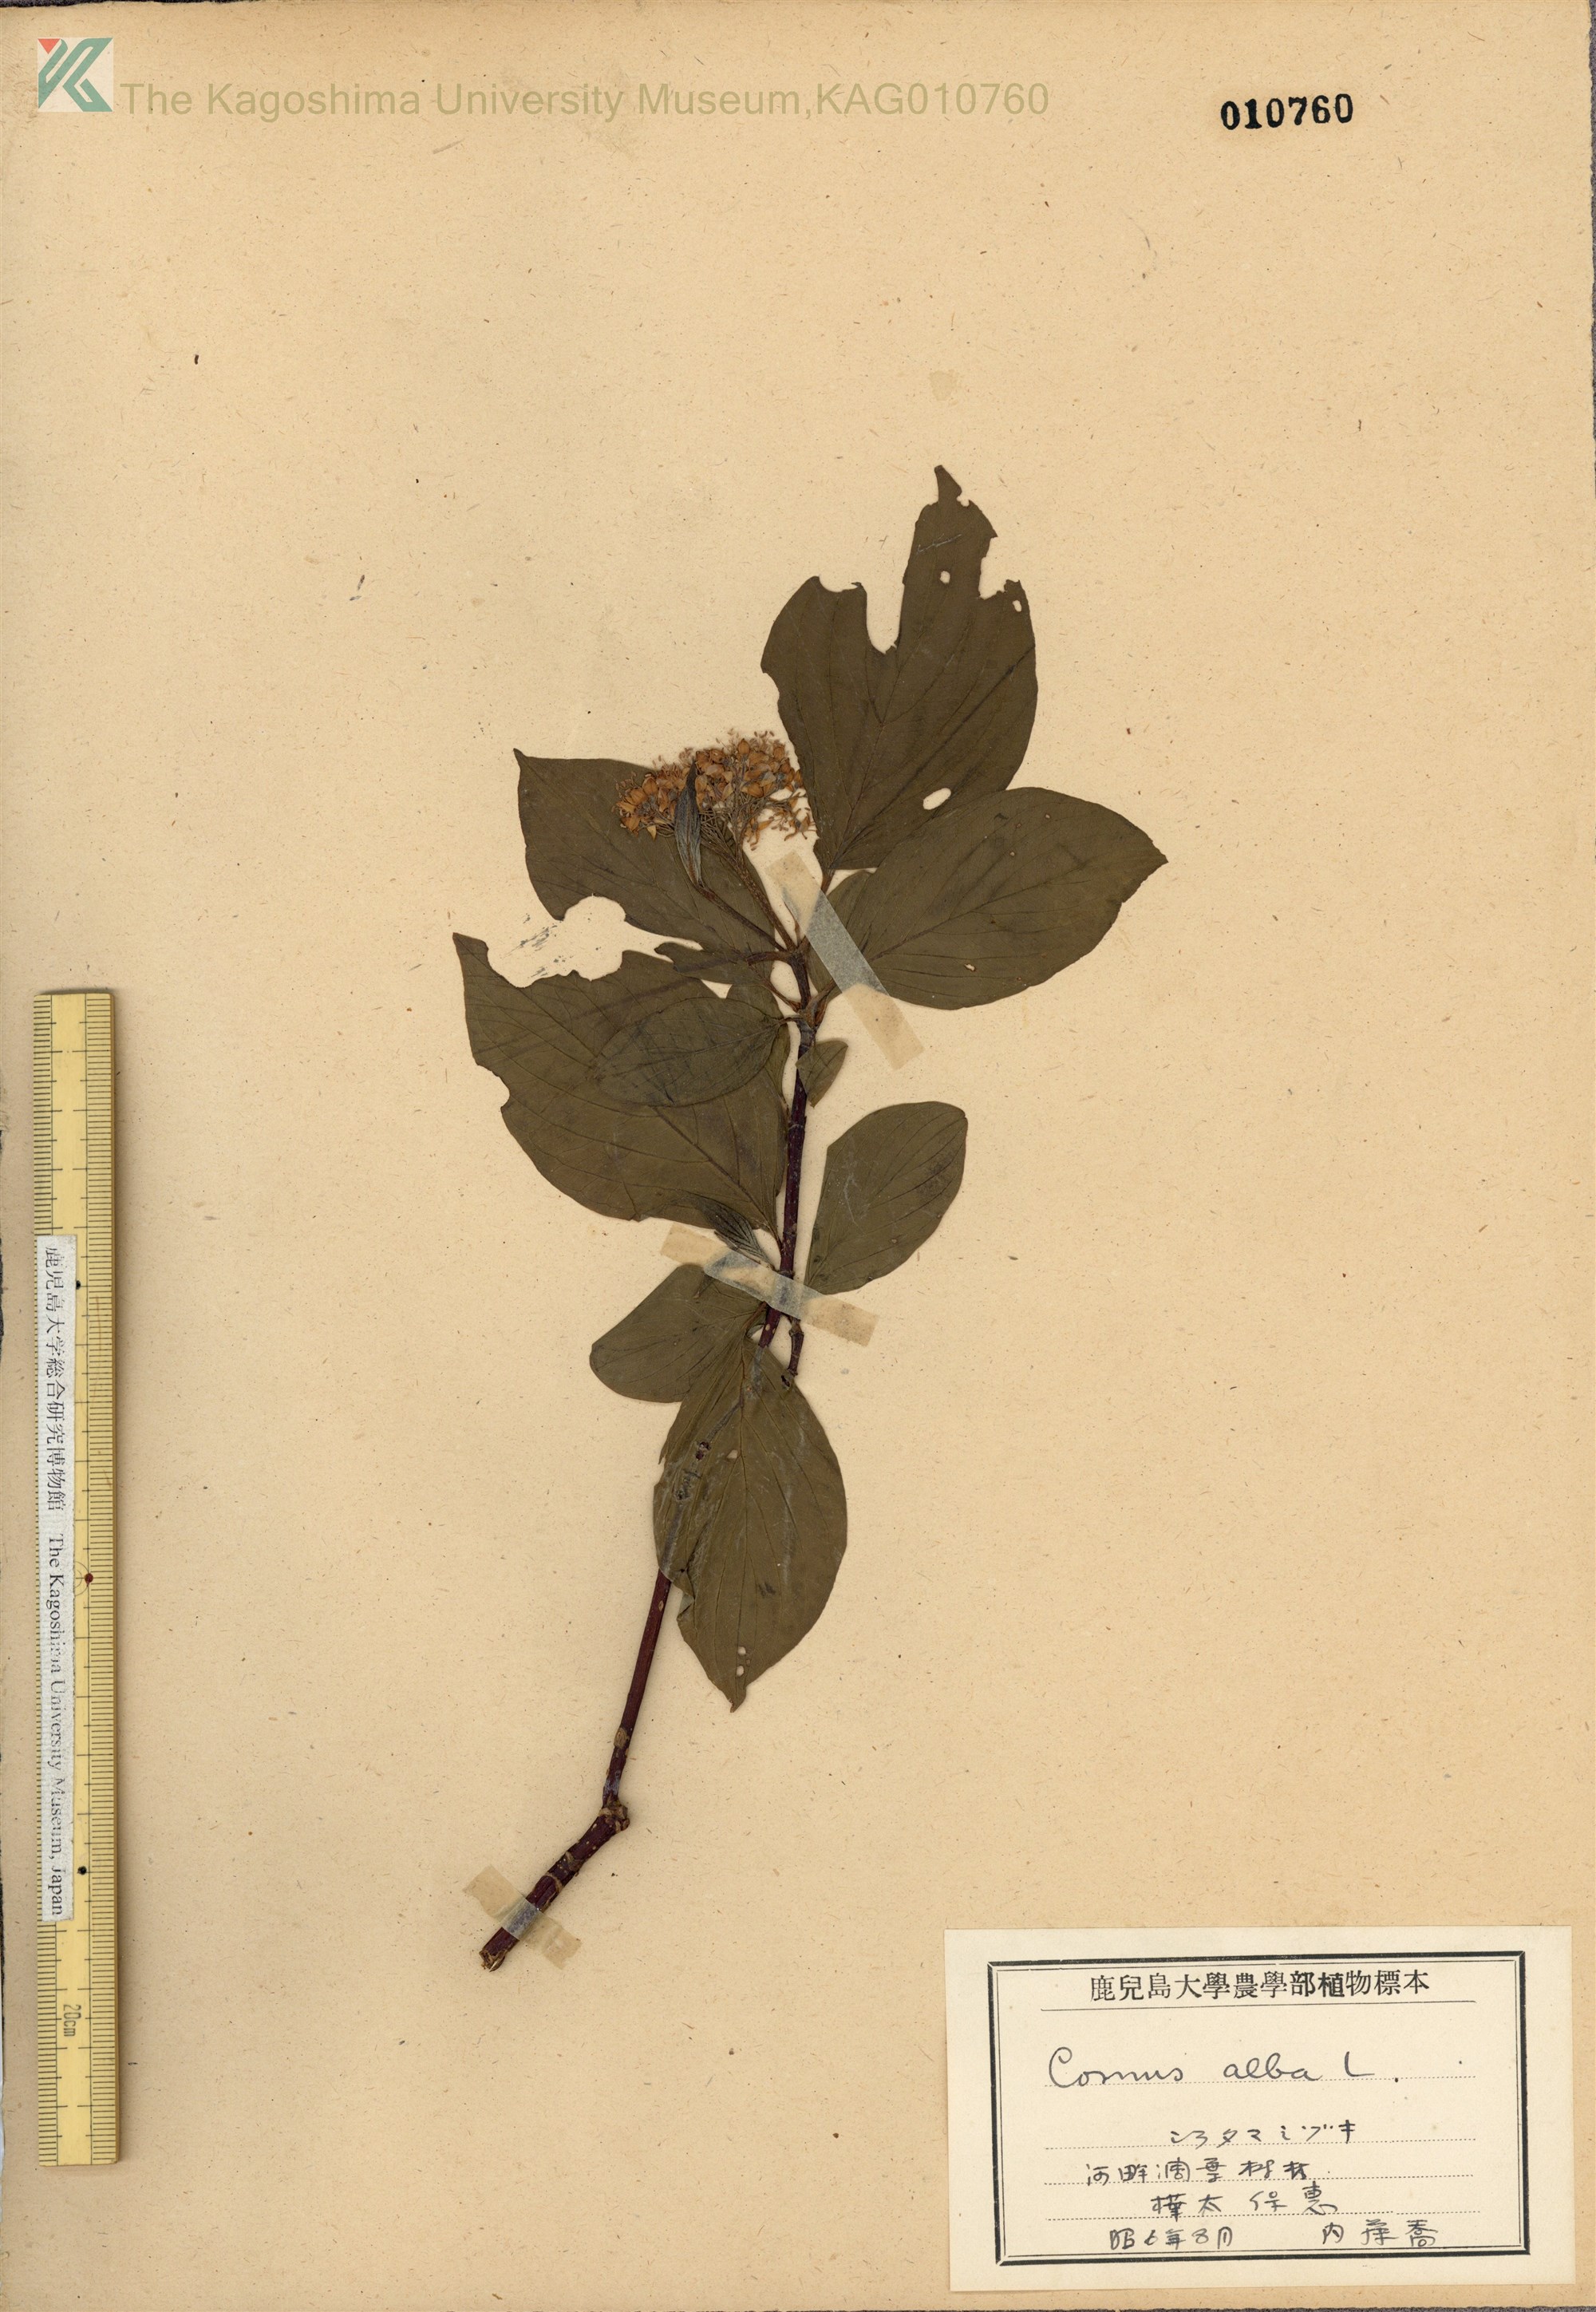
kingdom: Plantae
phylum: Tracheophyta
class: Magnoliopsida
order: Cornales
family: Cornaceae
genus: Cornus
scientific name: Cornus alba
